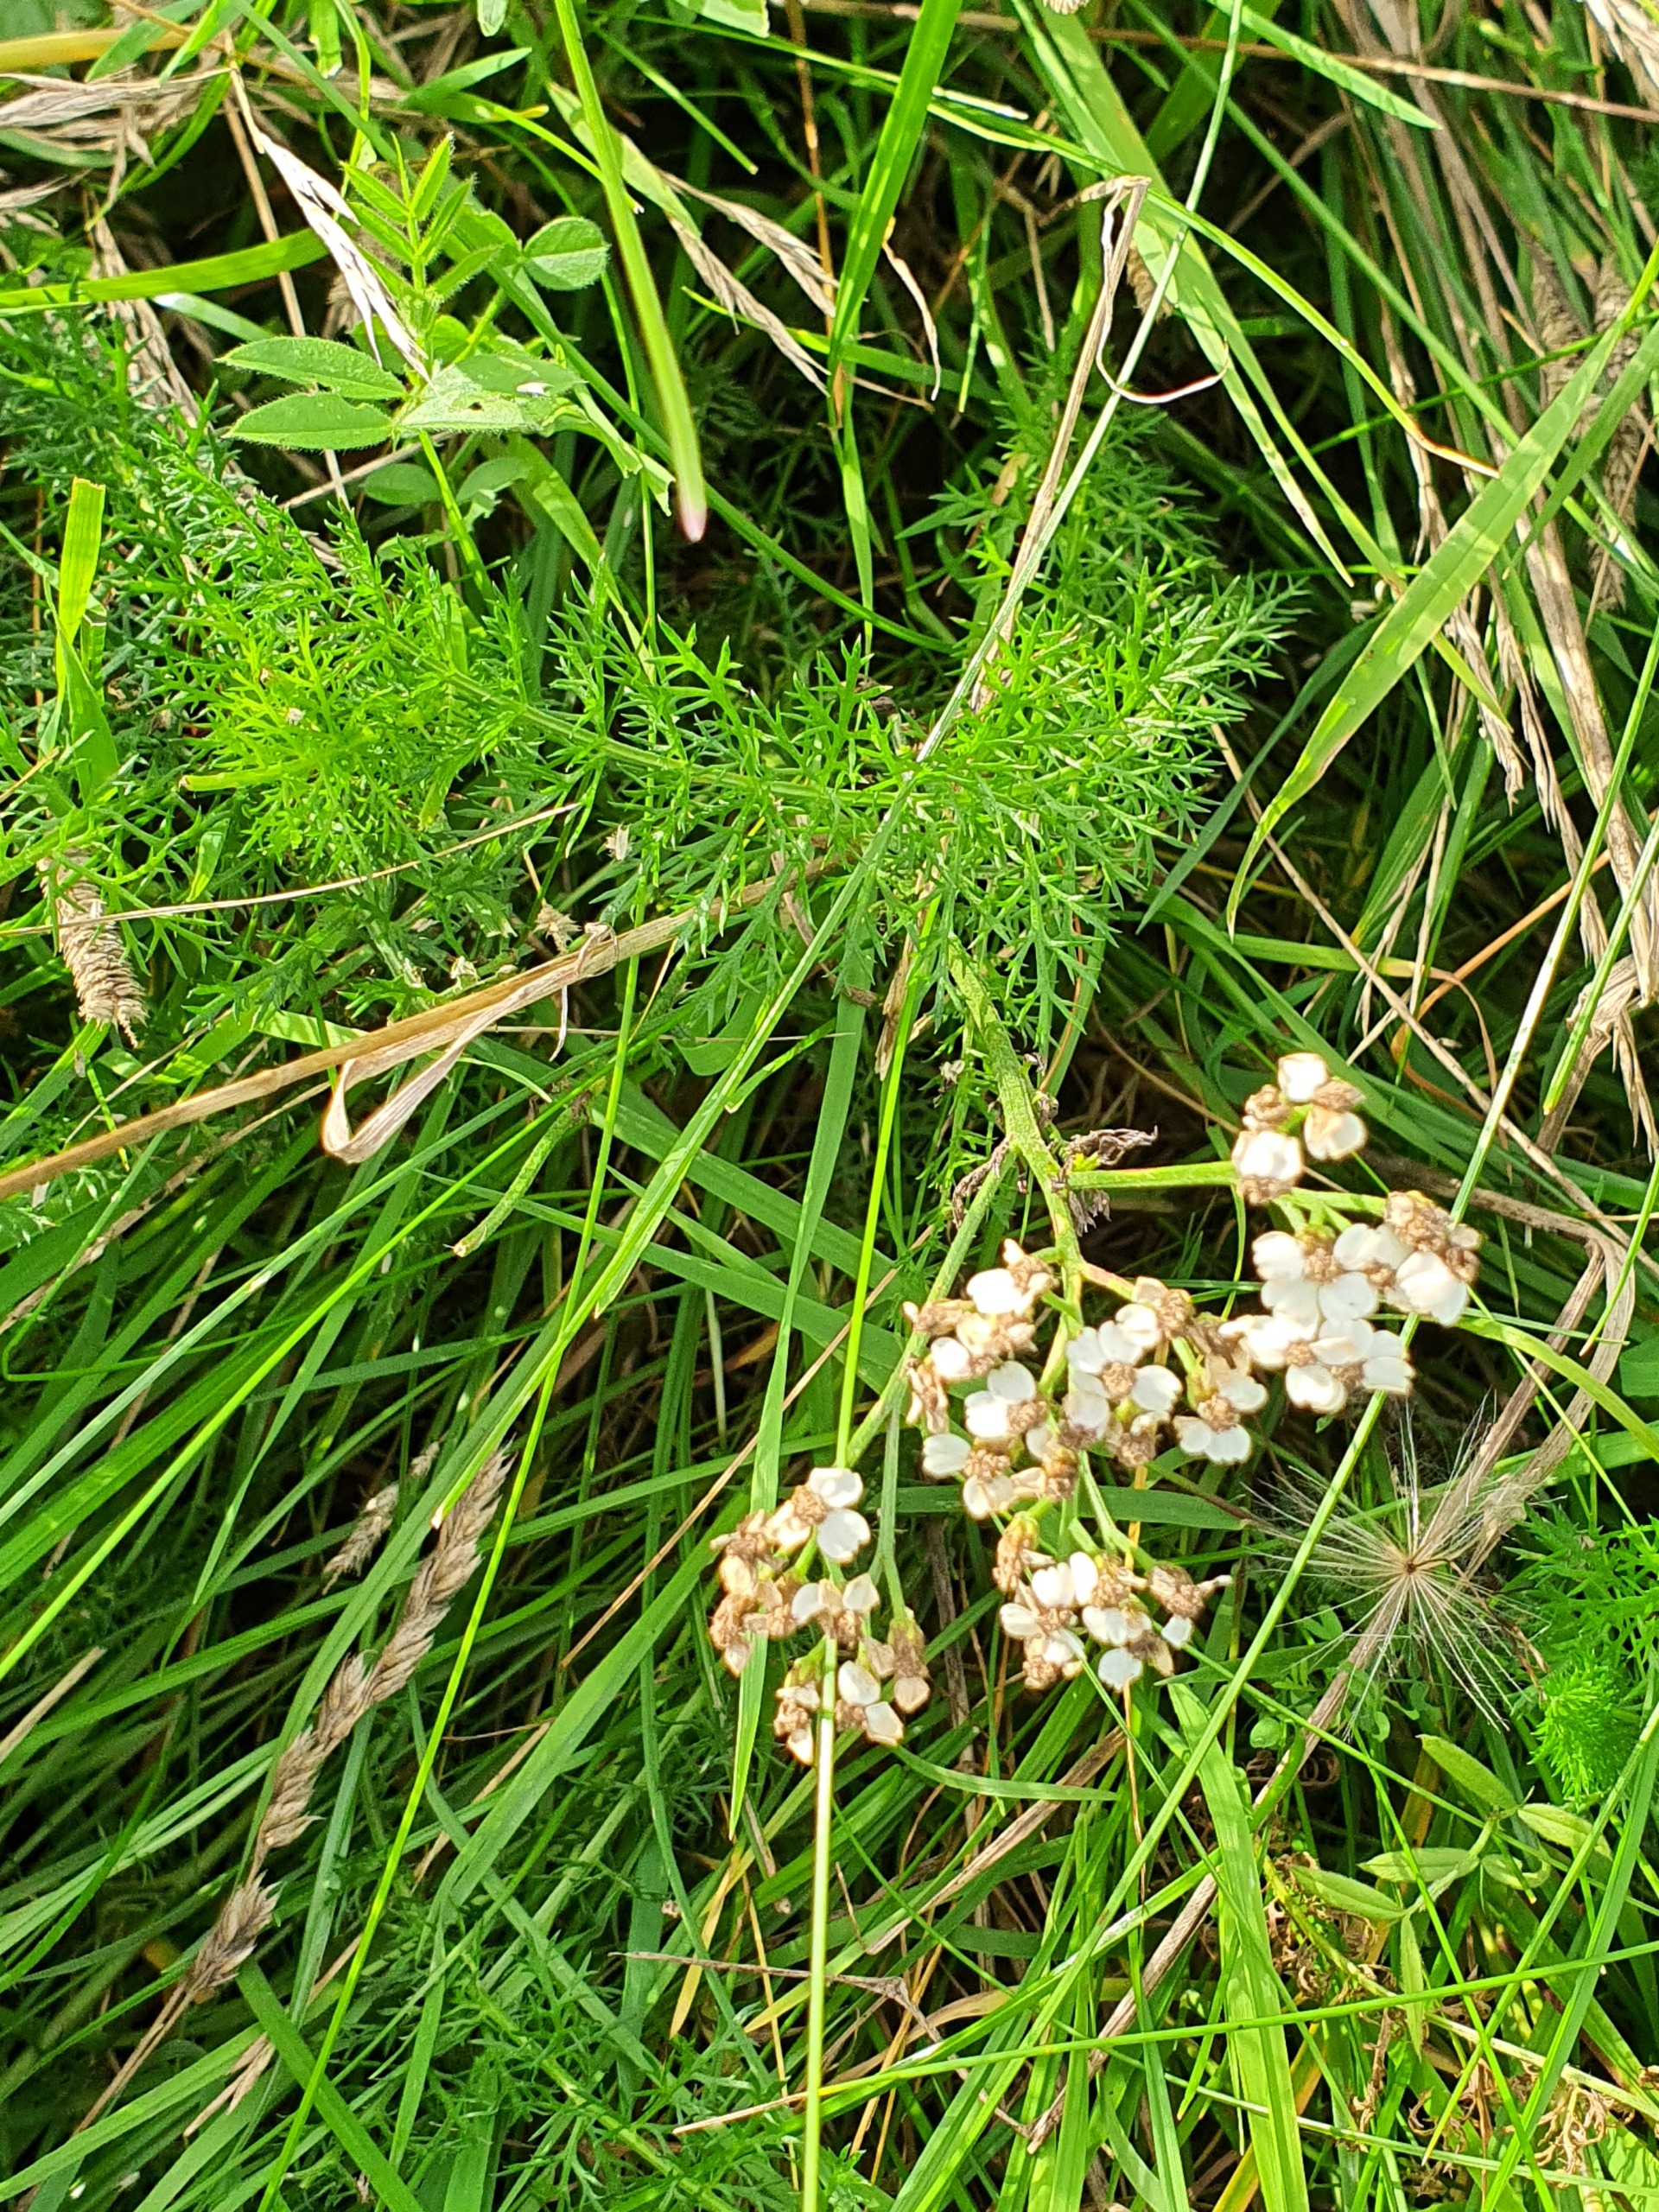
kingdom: Plantae
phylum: Tracheophyta
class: Magnoliopsida
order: Asterales
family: Asteraceae
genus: Achillea
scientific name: Achillea millefolium
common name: Almindelig røllike
